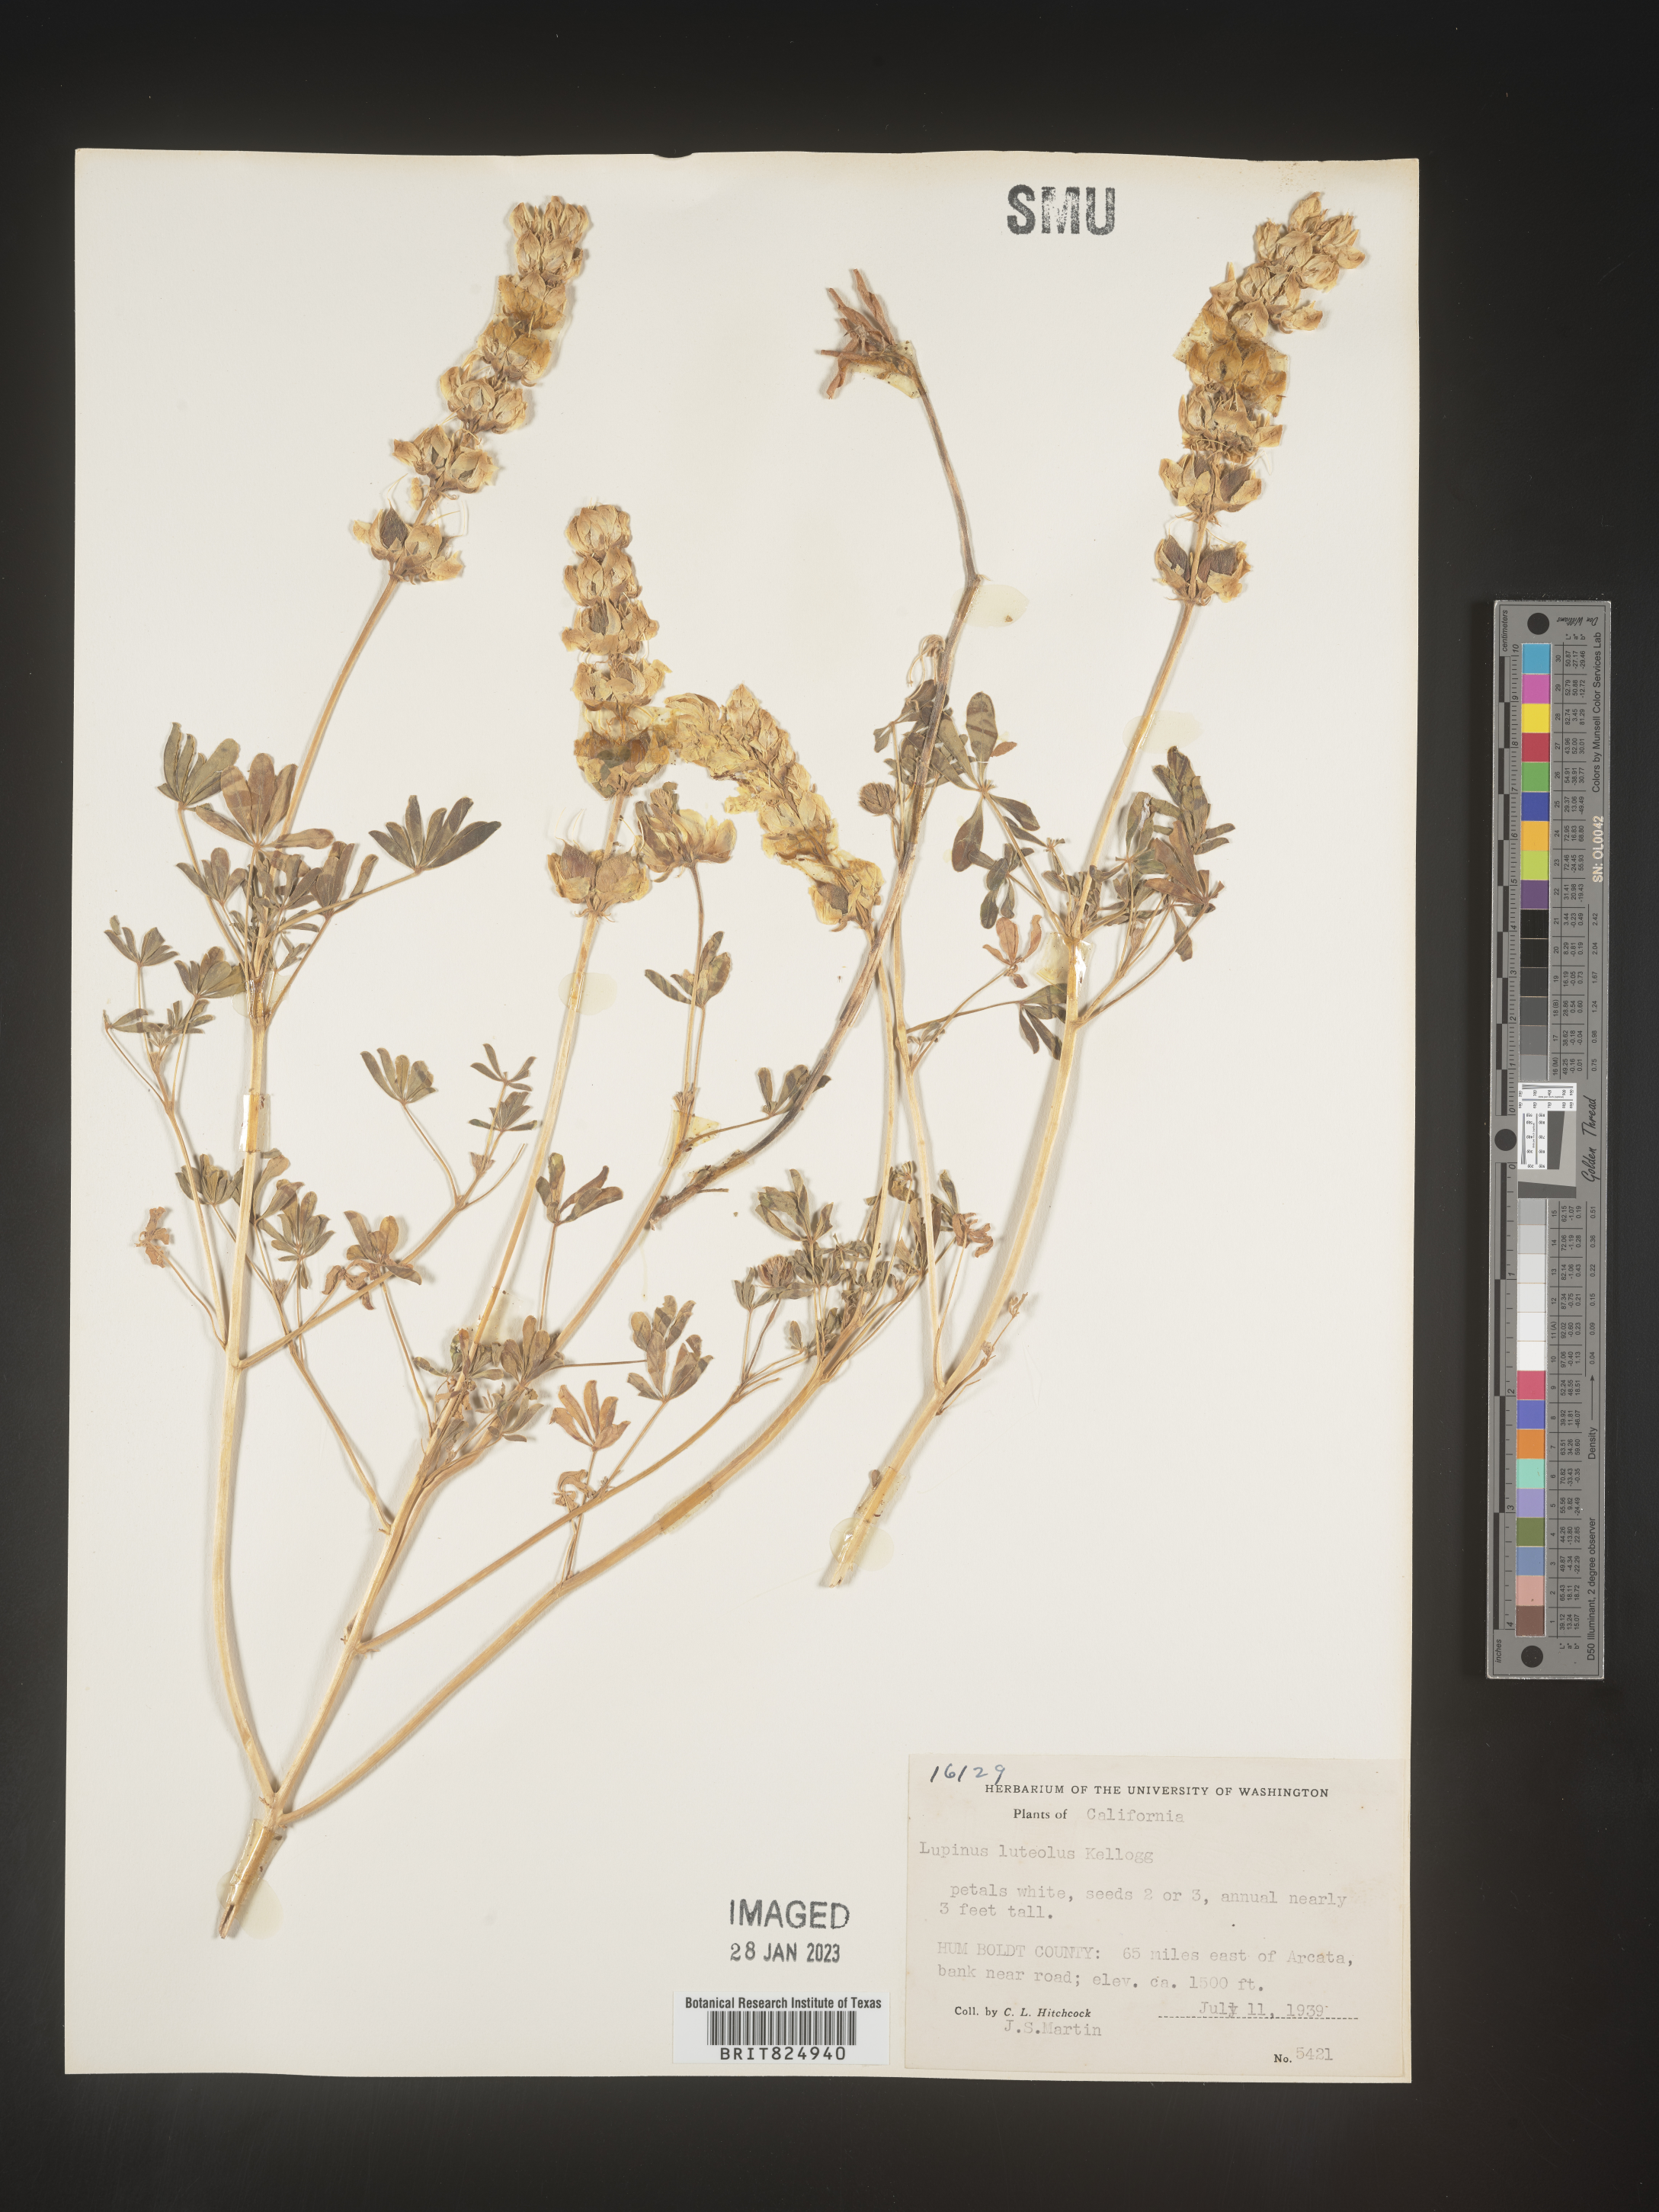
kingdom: Plantae
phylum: Tracheophyta
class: Magnoliopsida
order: Fabales
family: Fabaceae
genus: Lupinus
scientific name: Lupinus
